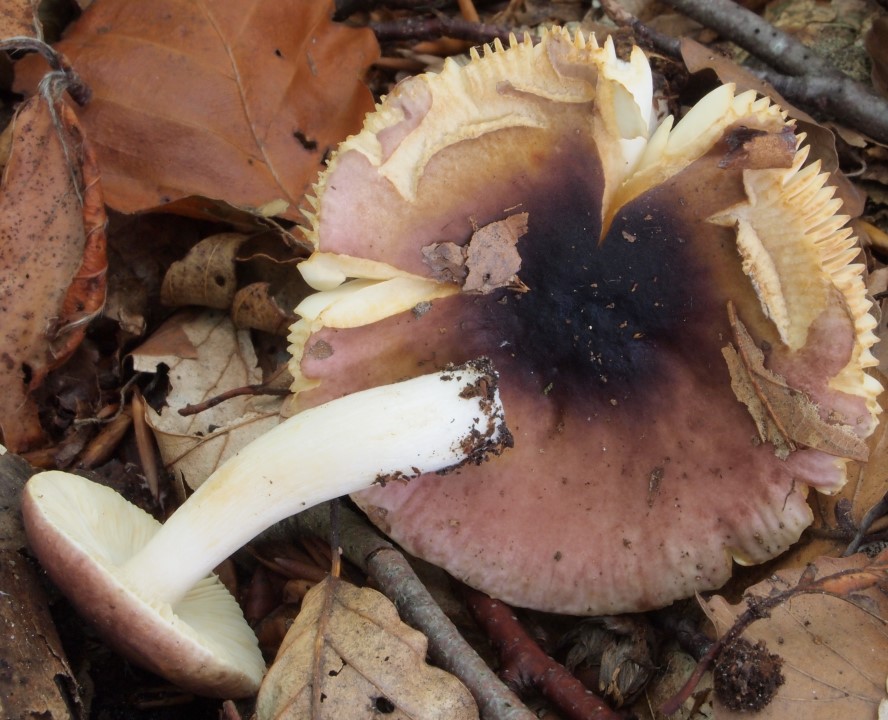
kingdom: Fungi
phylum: Basidiomycota
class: Agaricomycetes
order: Russulales
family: Russulaceae
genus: Russula
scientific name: Russula puellaris
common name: gulstokket skørhat
